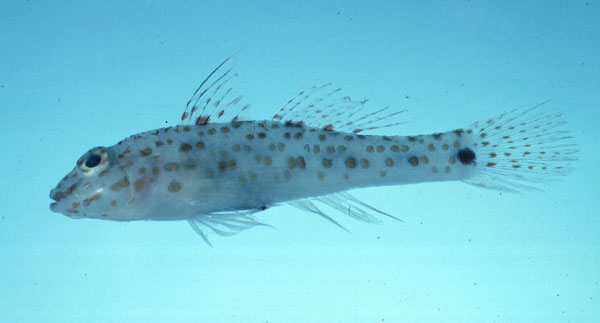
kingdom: Animalia
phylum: Chordata
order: Perciformes
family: Gobiidae
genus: Fusigobius
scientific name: Fusigobius inframaculatus
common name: Blotched goby
